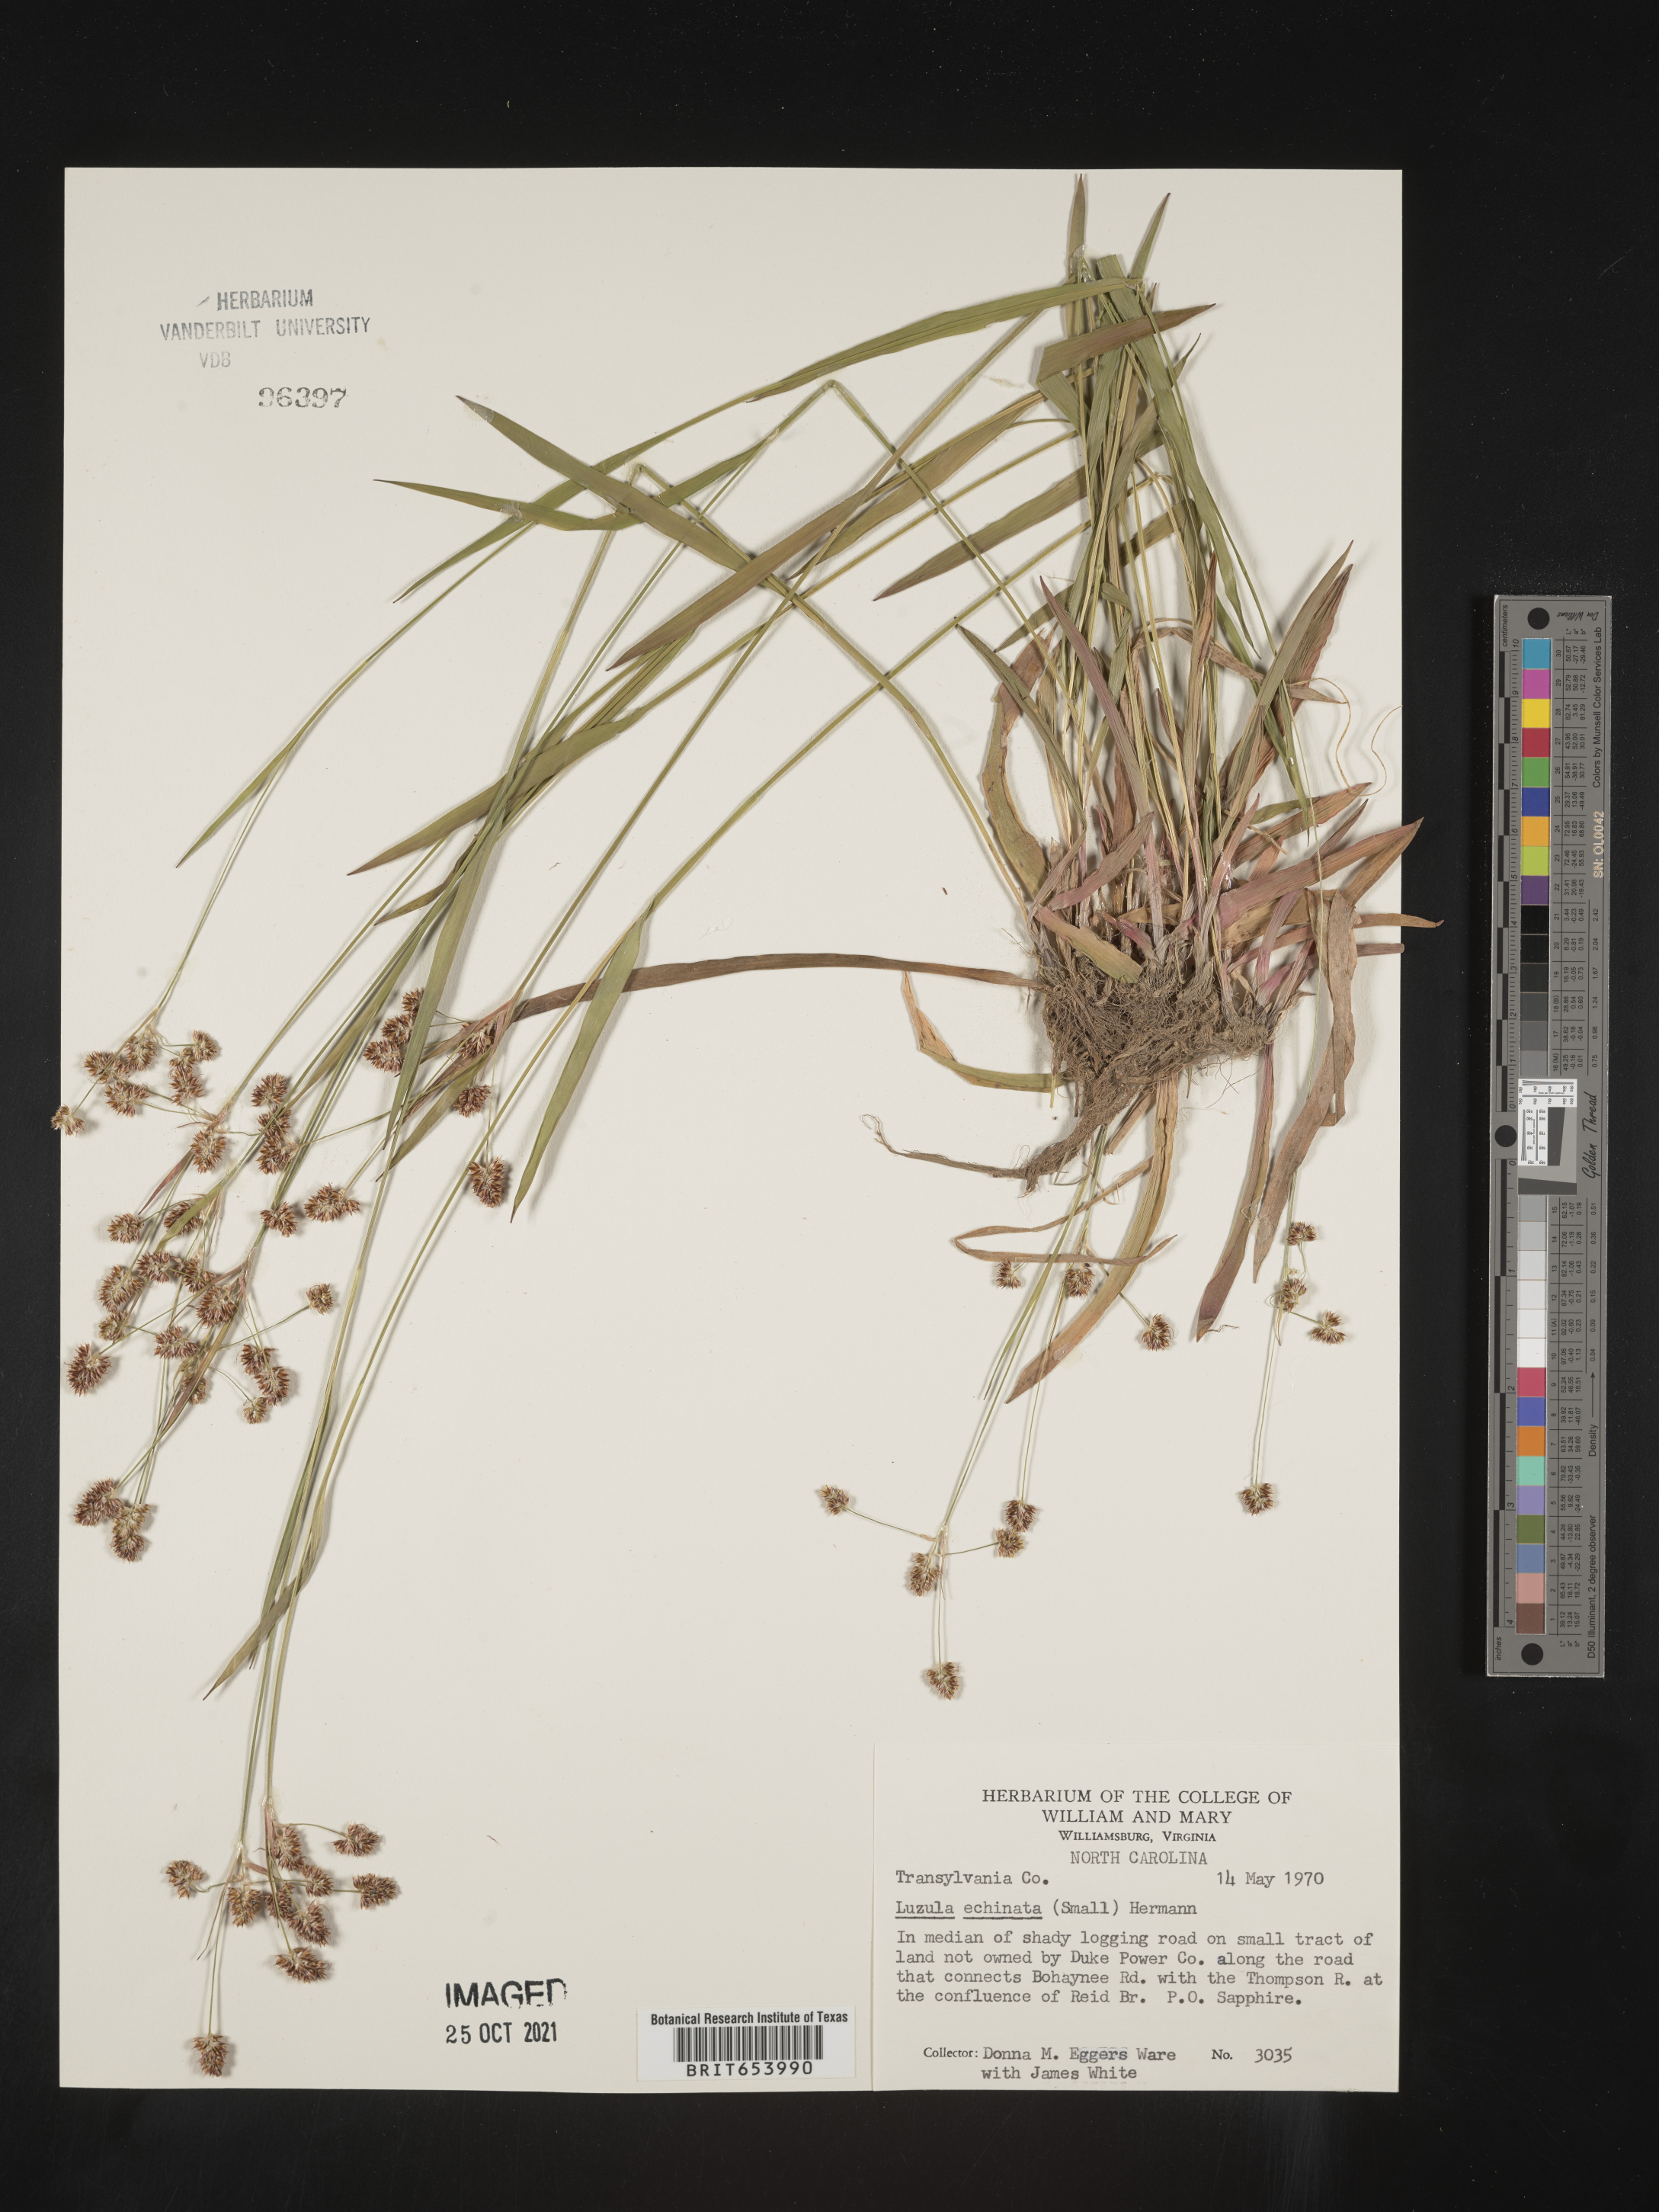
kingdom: Plantae
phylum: Tracheophyta
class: Liliopsida
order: Poales
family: Juncaceae
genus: Luzula
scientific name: Luzula echinata
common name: Hedgehog woodrush
